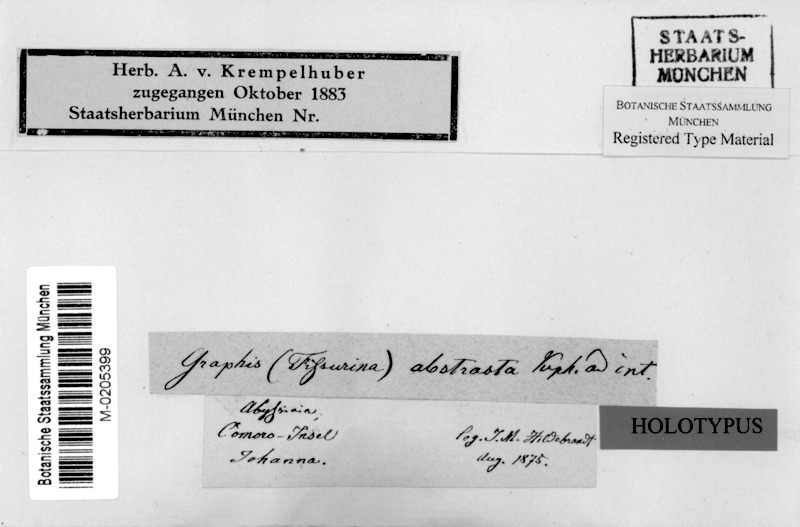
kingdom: Fungi
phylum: Ascomycota
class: Lecanoromycetes
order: Ostropales
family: Graphidaceae
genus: Graphina
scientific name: Graphina
